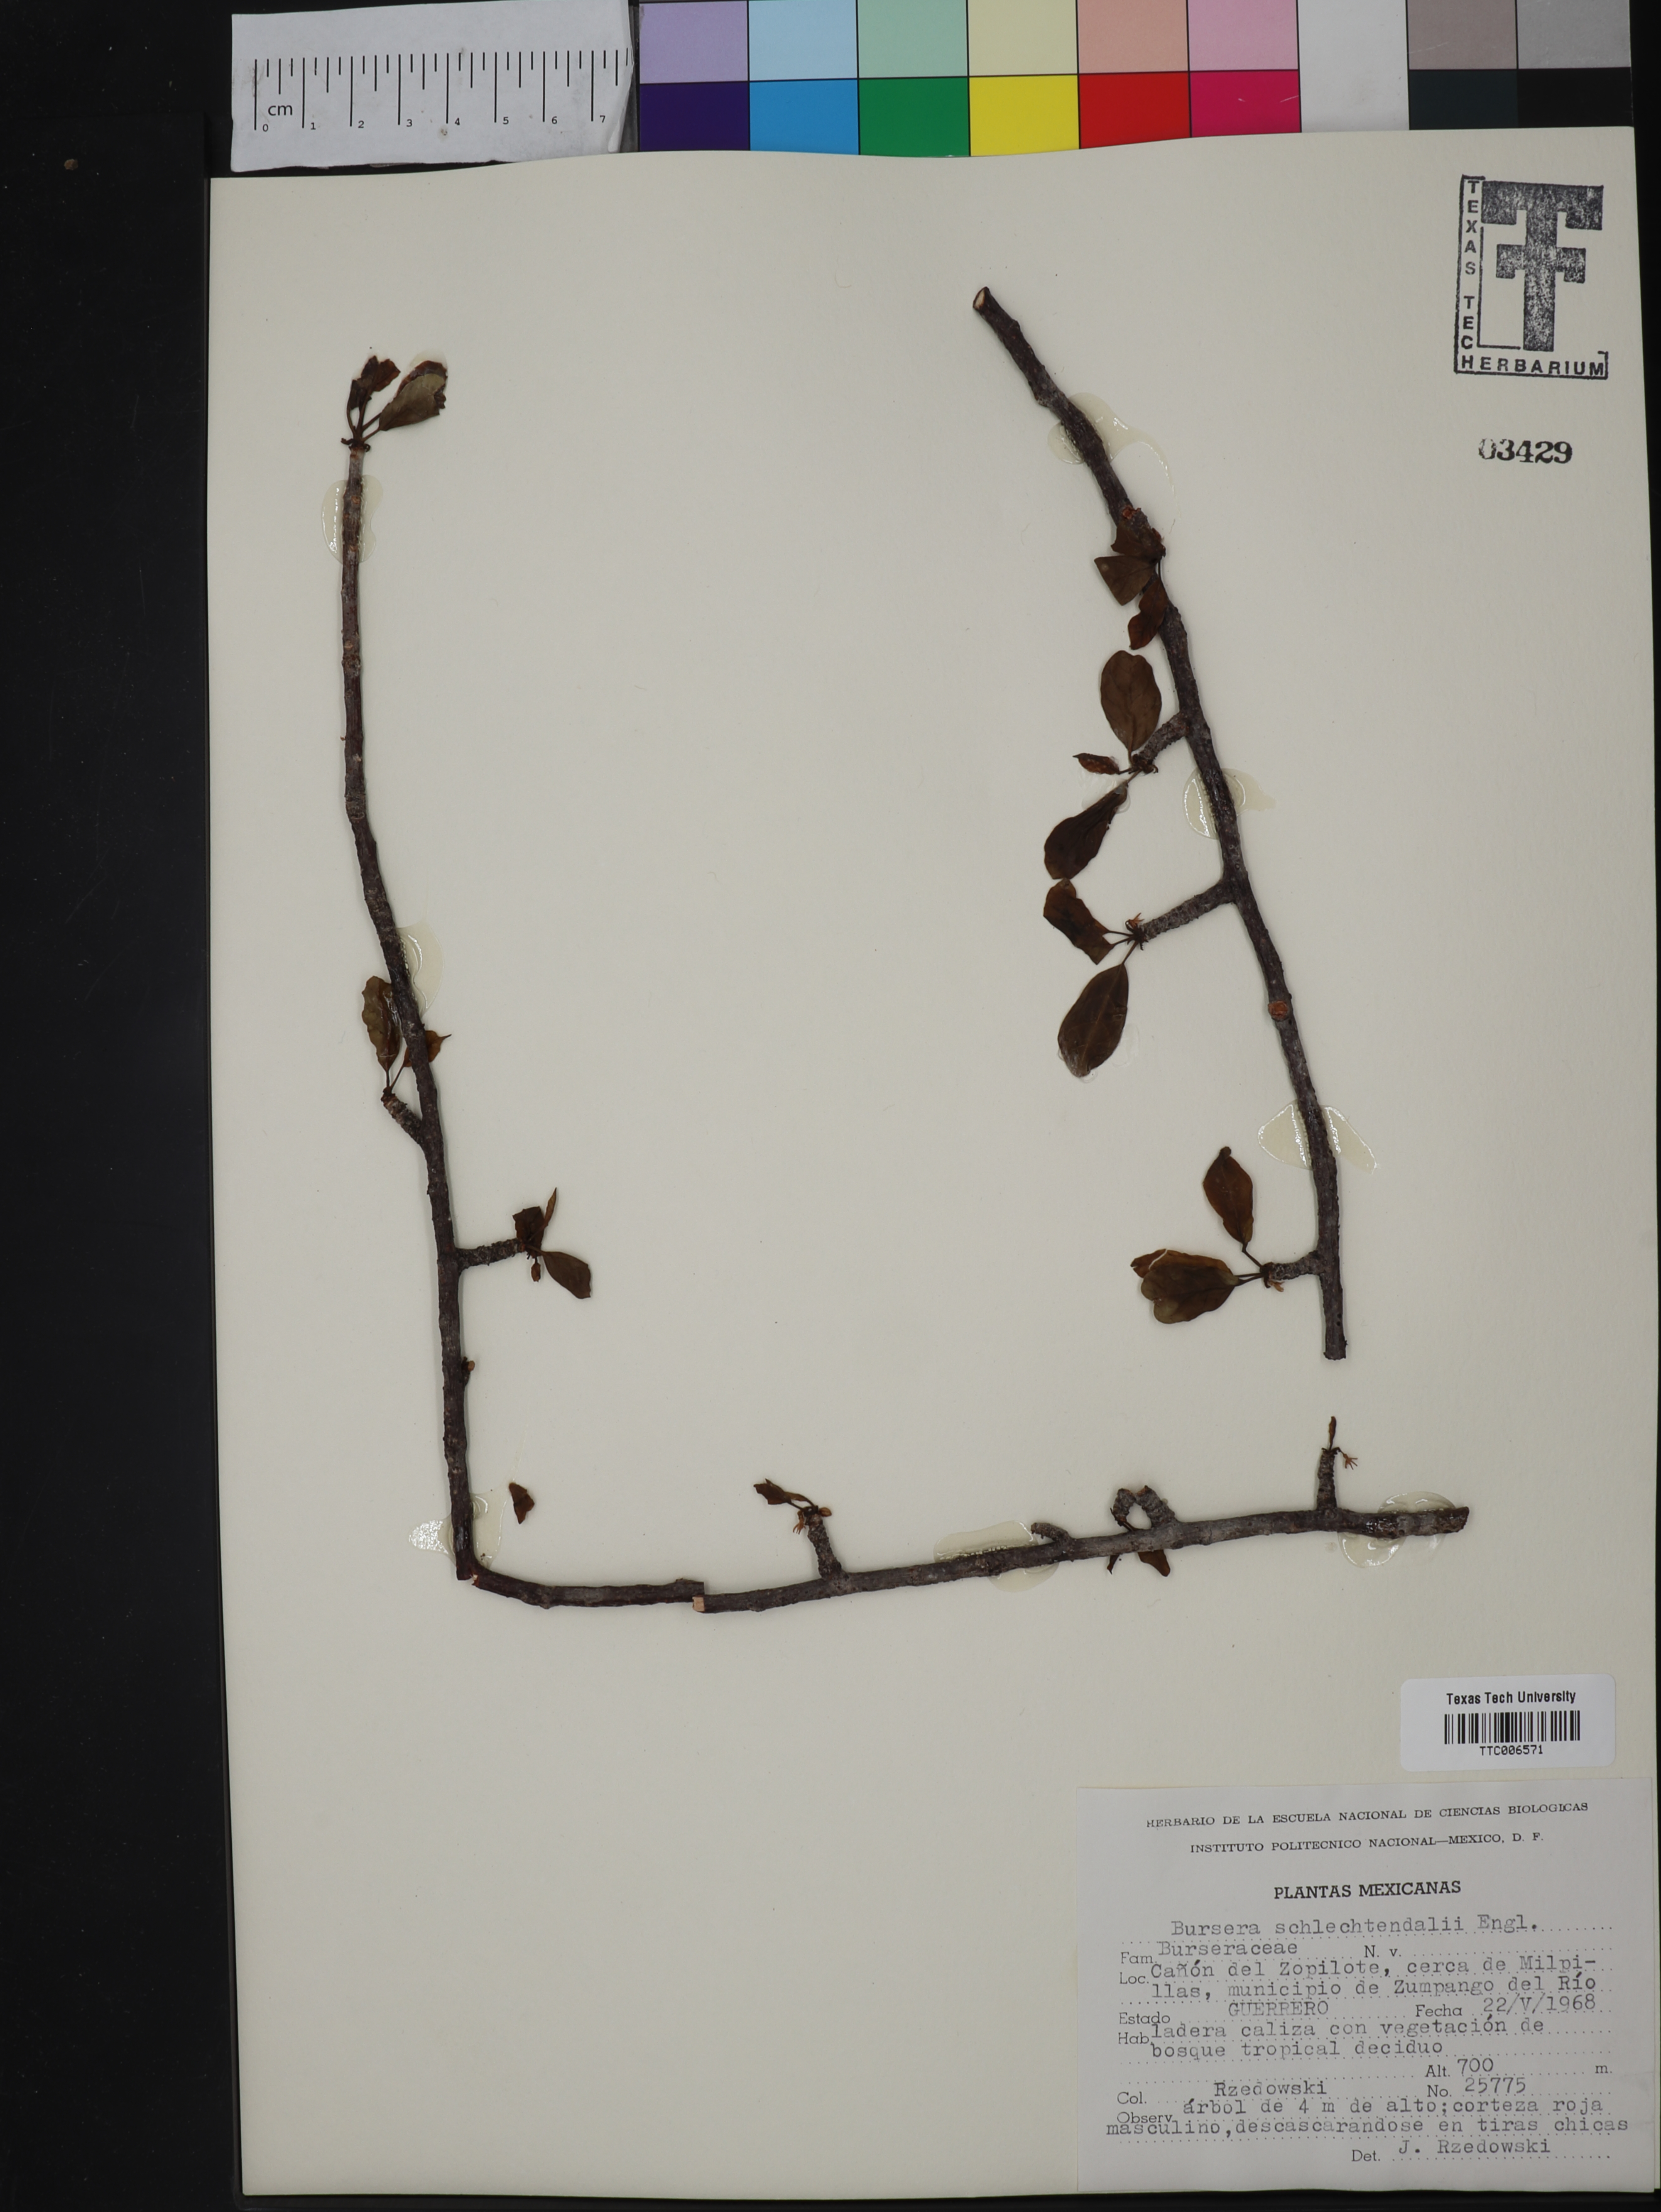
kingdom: Plantae
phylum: Tracheophyta
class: Magnoliopsida
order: Sapindales
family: Burseraceae
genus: Bursera
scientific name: Bursera schlechtendalii
